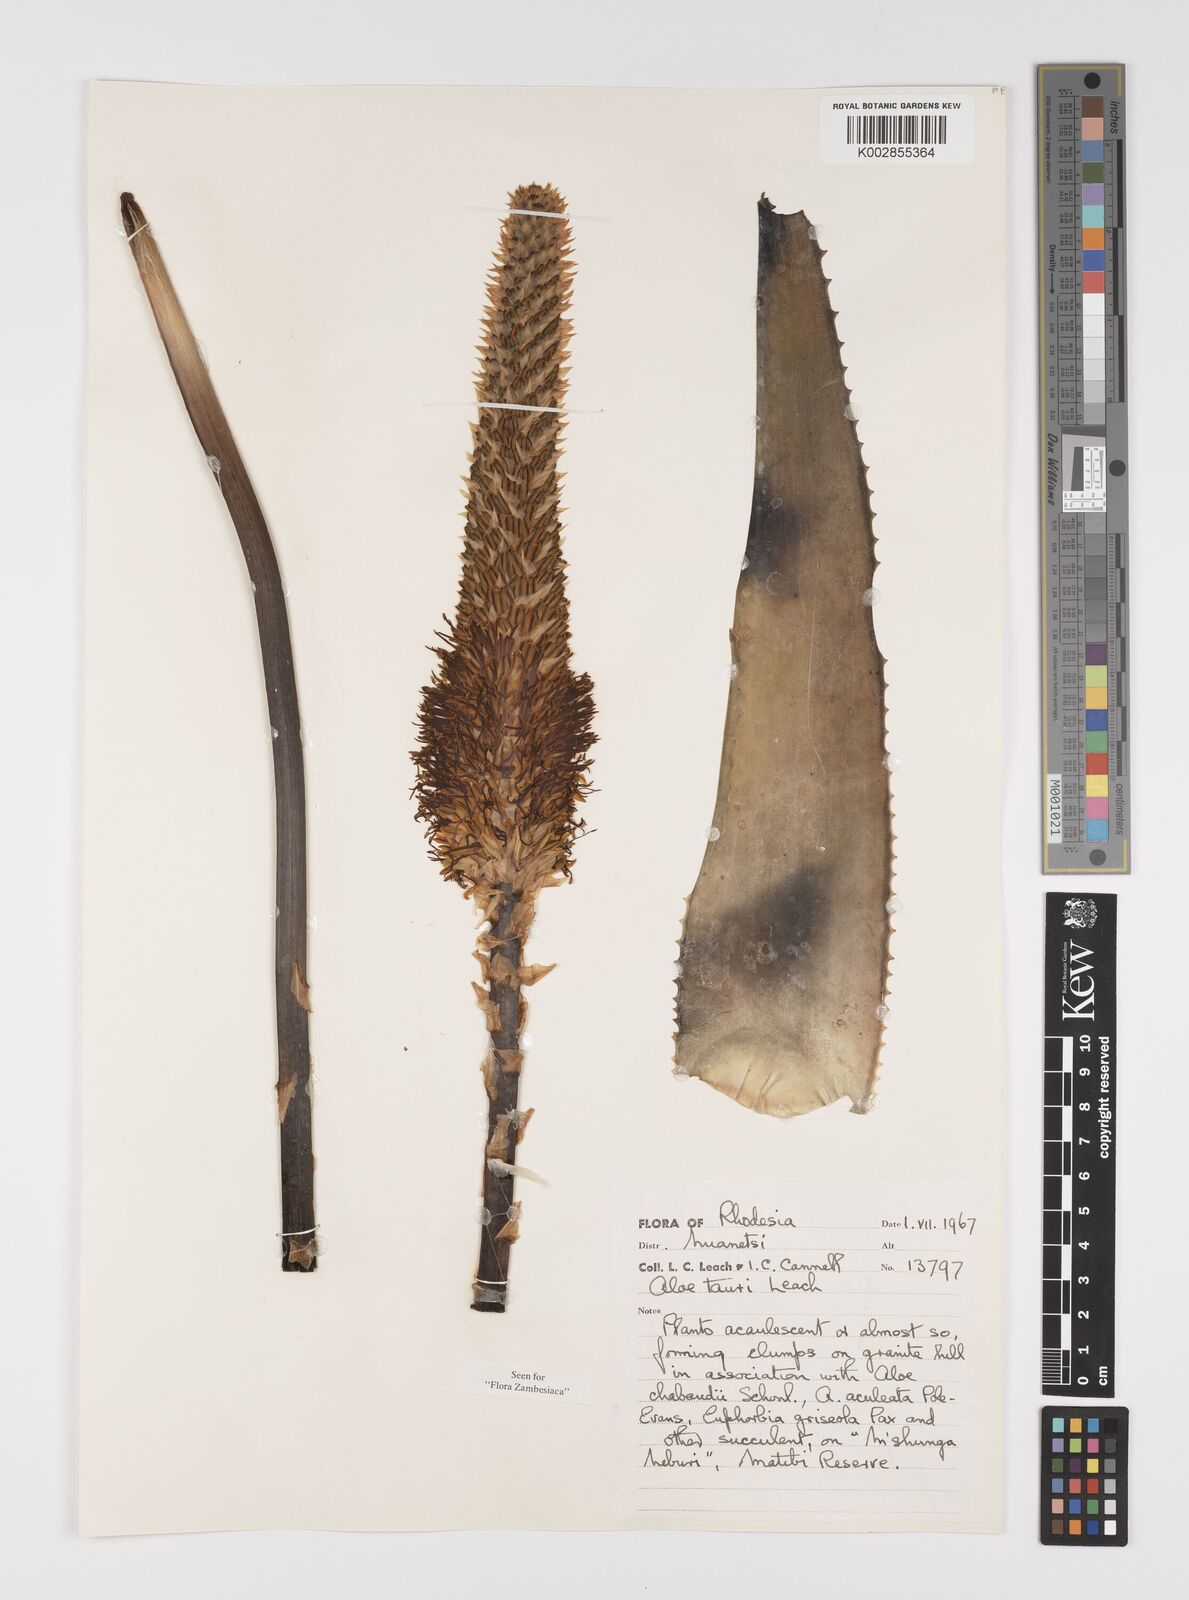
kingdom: Plantae
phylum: Tracheophyta
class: Liliopsida
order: Asparagales
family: Asphodelaceae
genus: Aloe
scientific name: Aloe tauri
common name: Bullock's bottle brush aloe
